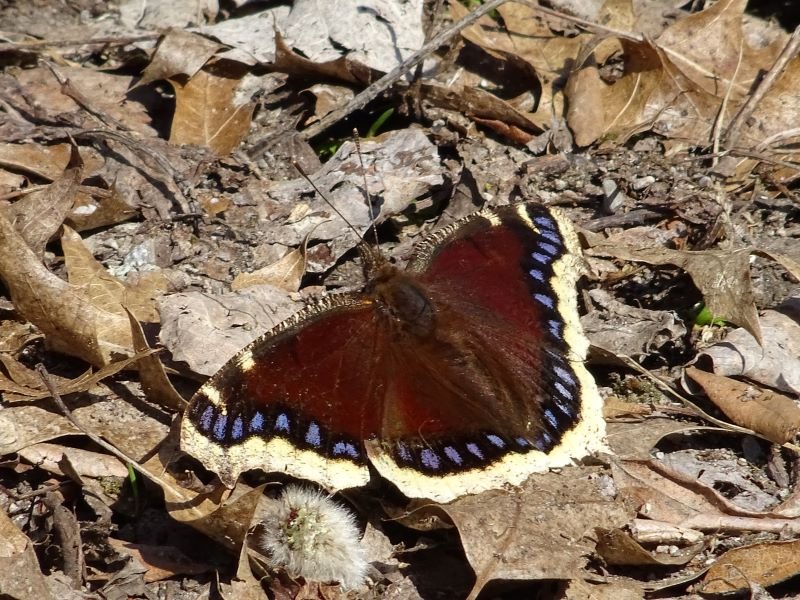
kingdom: Animalia
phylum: Arthropoda
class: Insecta
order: Lepidoptera
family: Nymphalidae
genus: Nymphalis
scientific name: Nymphalis antiopa
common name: Mourning Cloak
